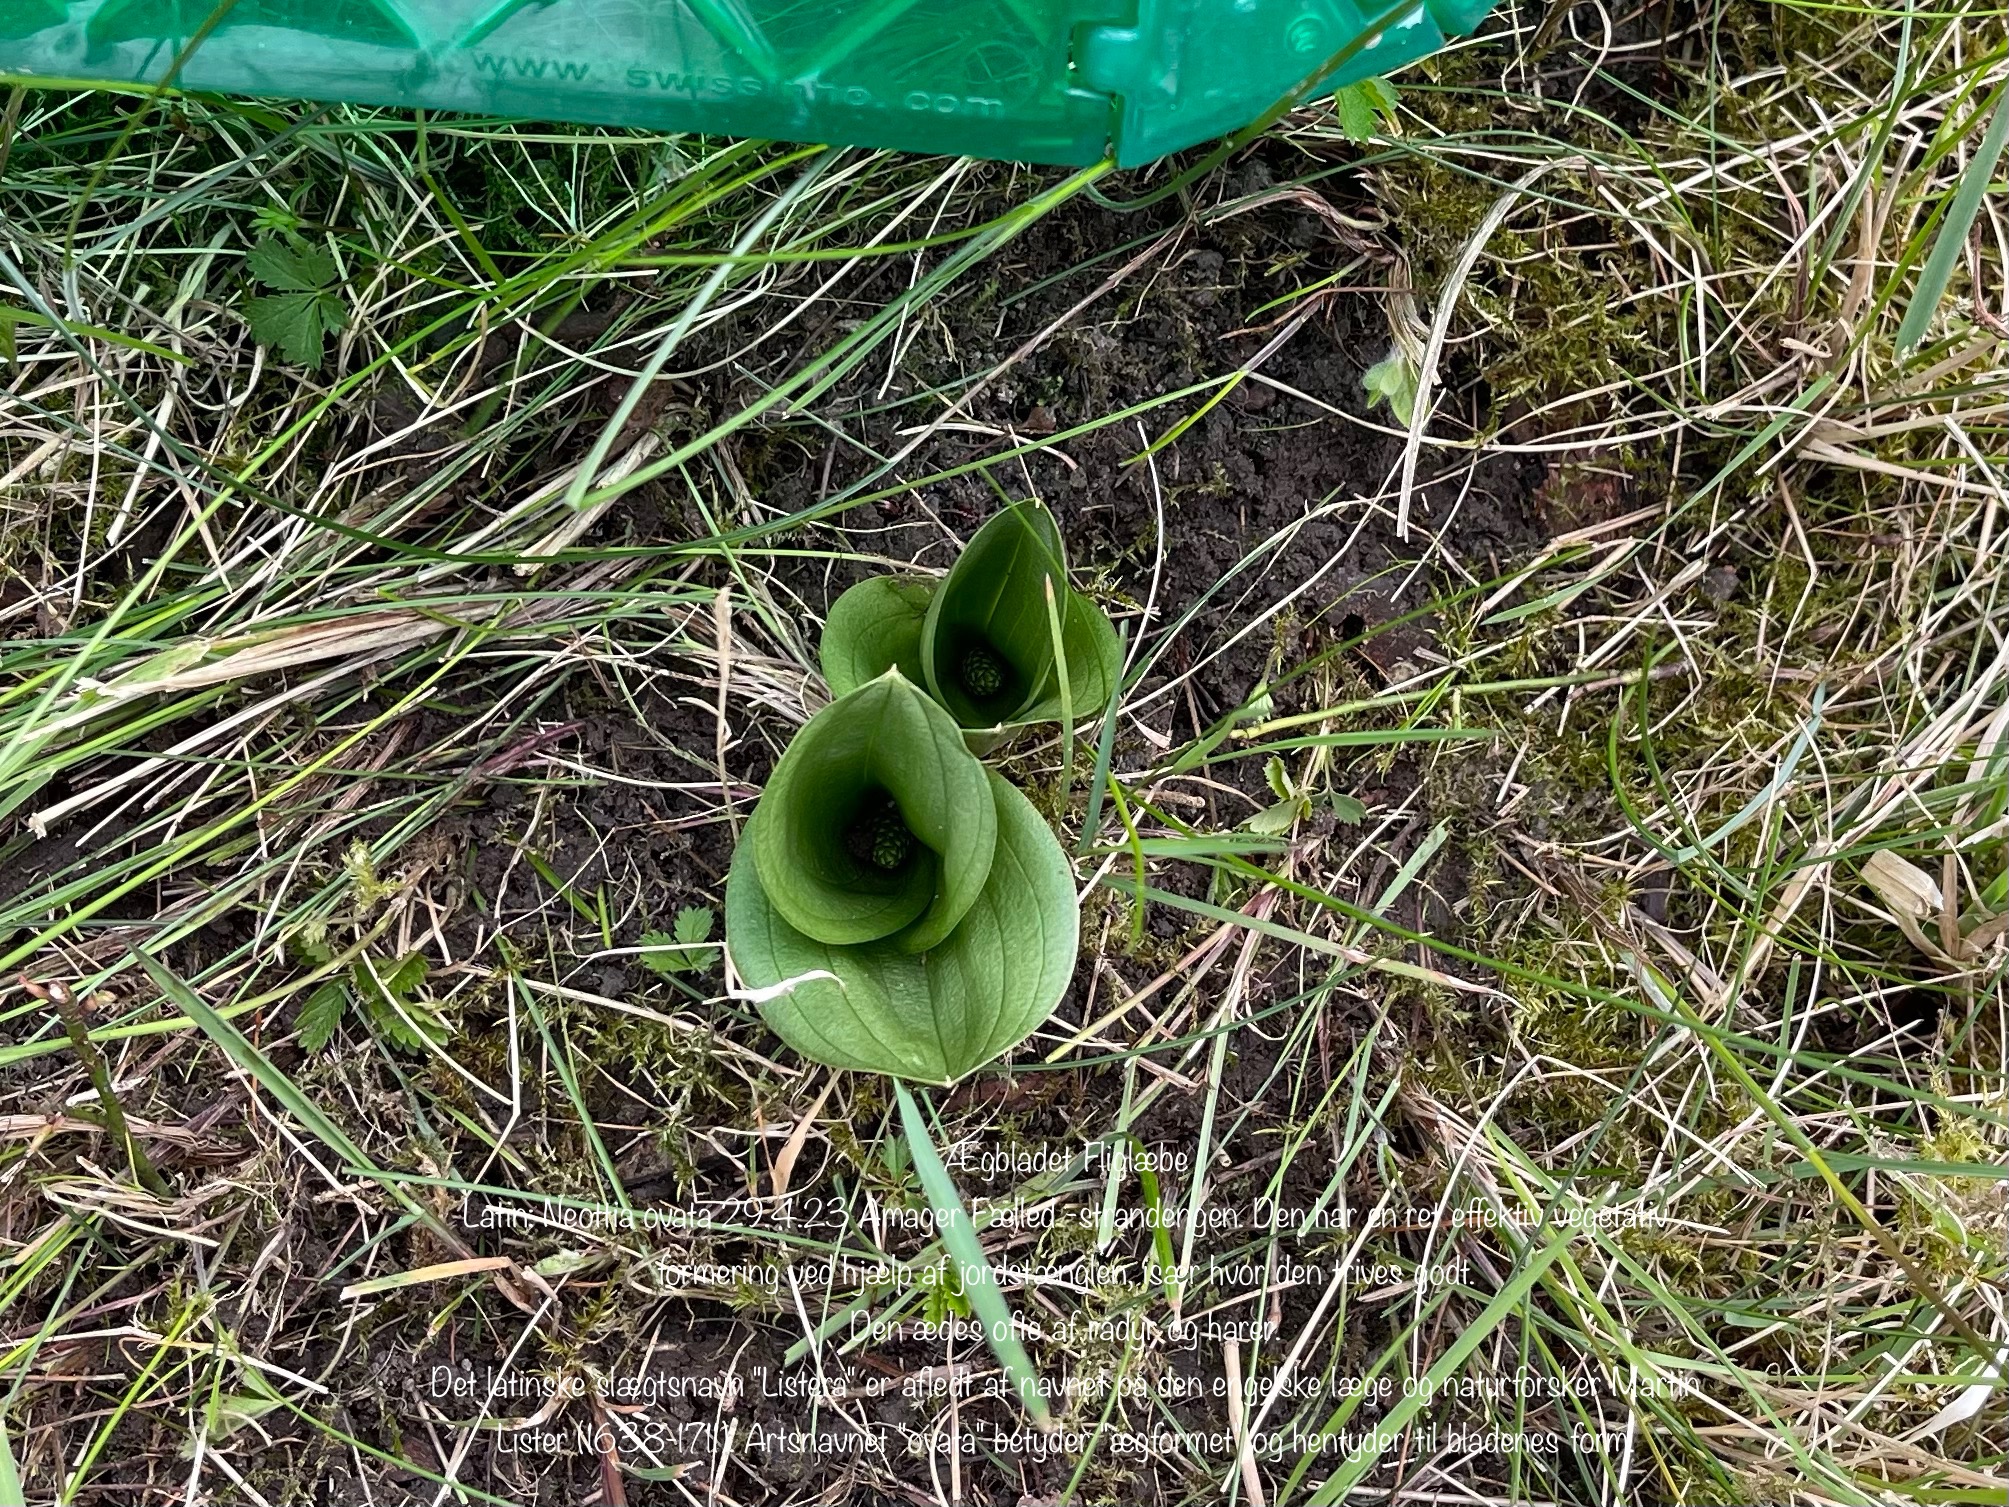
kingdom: Plantae
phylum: Tracheophyta
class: Liliopsida
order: Asparagales
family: Orchidaceae
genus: Neottia
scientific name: Neottia ovata
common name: Ægbladet fliglæbe
